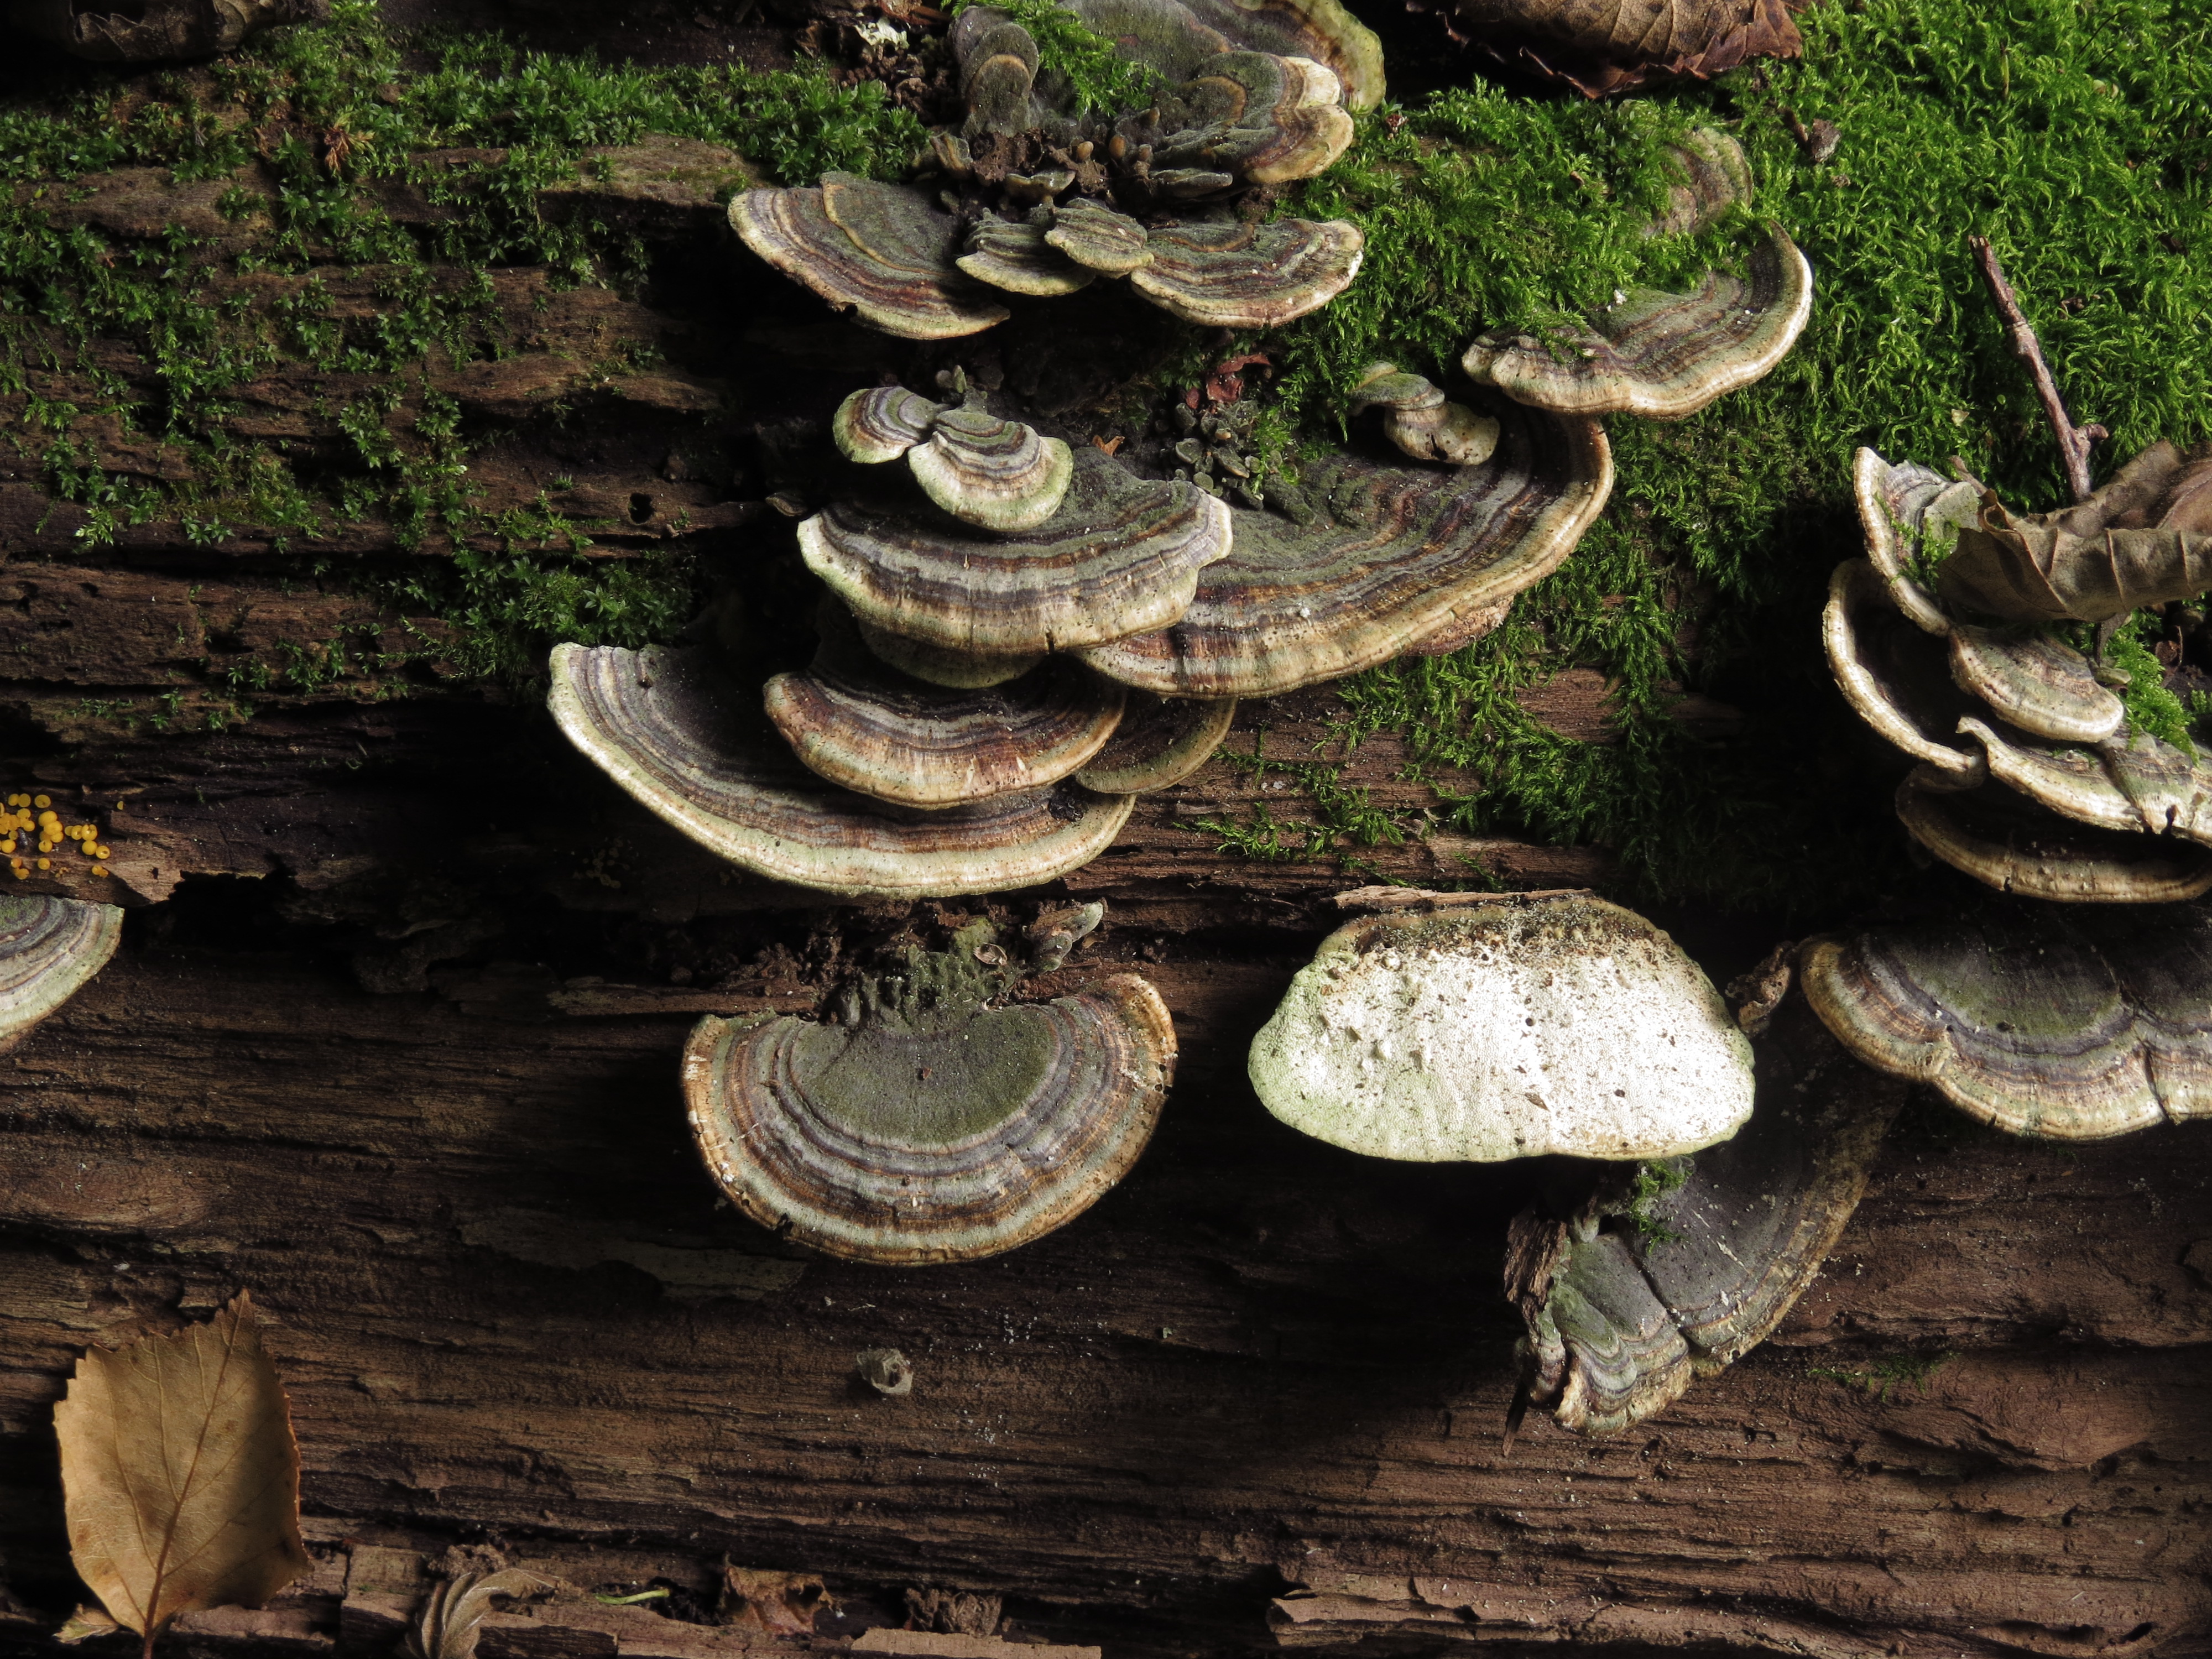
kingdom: Fungi
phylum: Basidiomycota
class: Agaricomycetes
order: Polyporales
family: Polyporaceae
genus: Trametes
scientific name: Trametes versicolor
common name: Turkeytail
